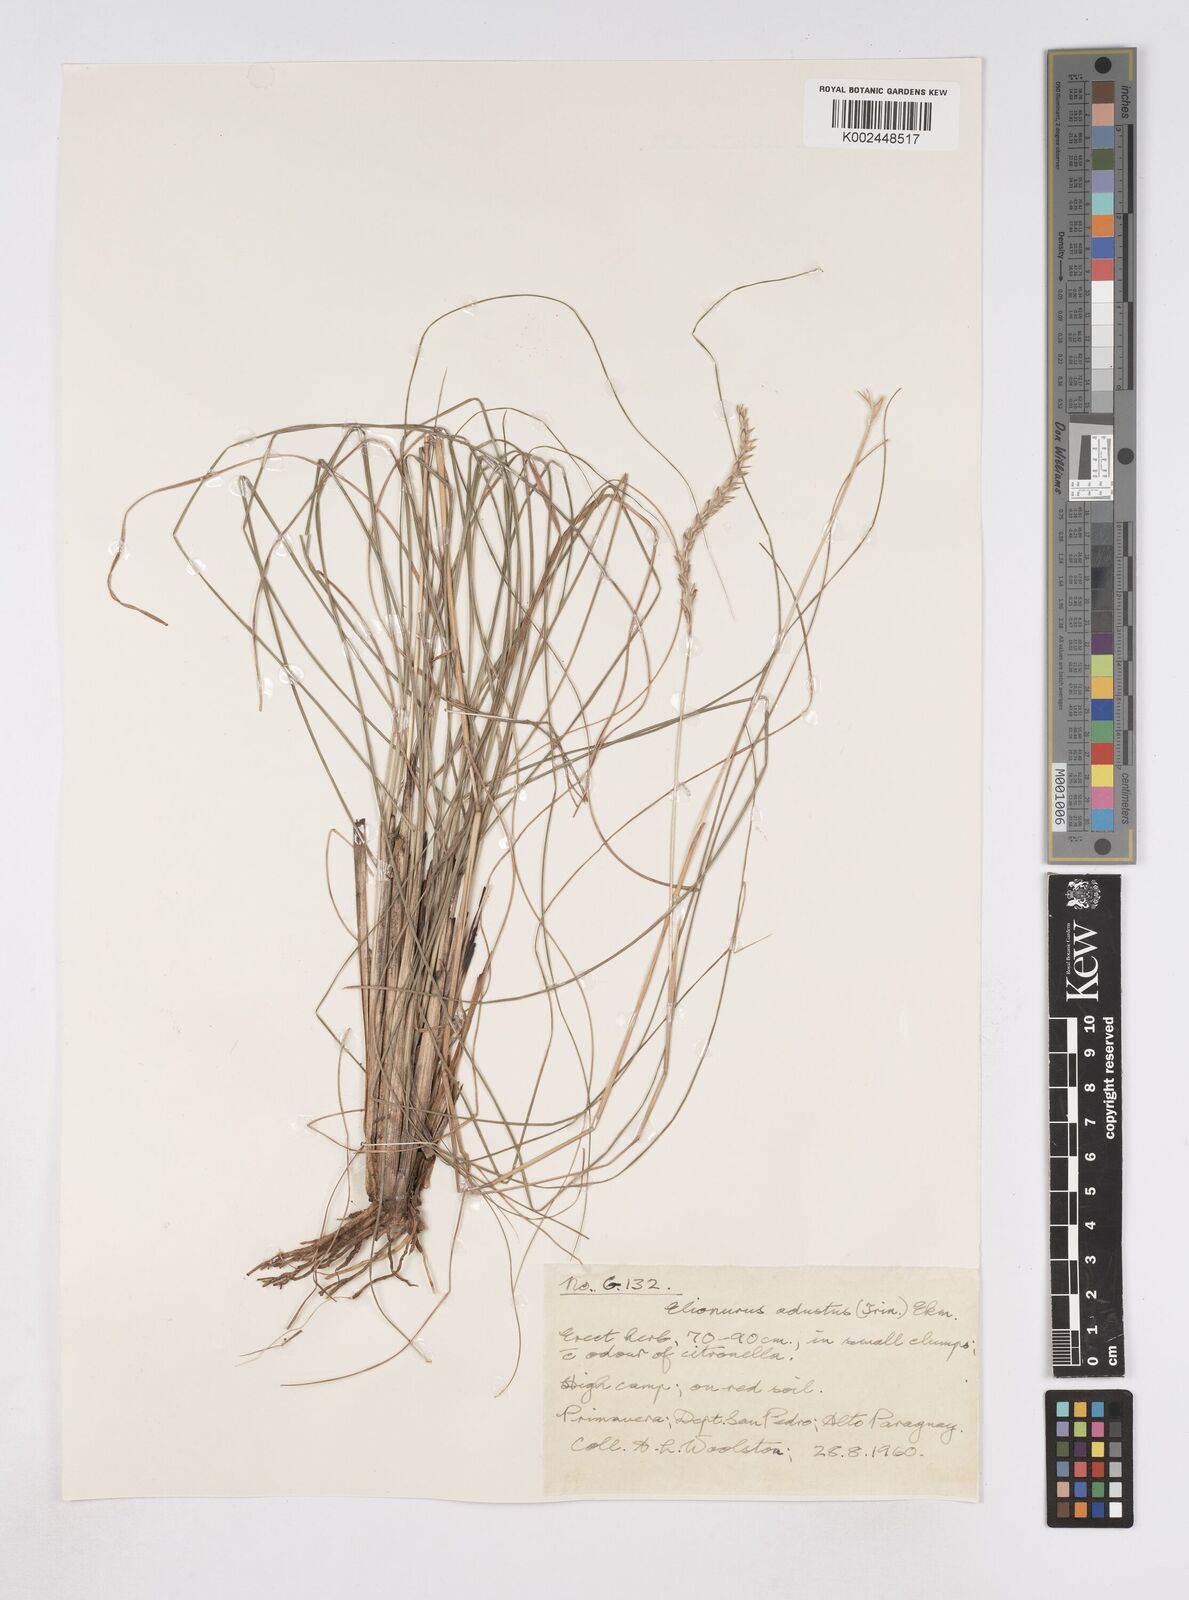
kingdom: Plantae
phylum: Tracheophyta
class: Liliopsida
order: Poales
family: Poaceae
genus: Elionurus
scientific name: Elionurus muticus
